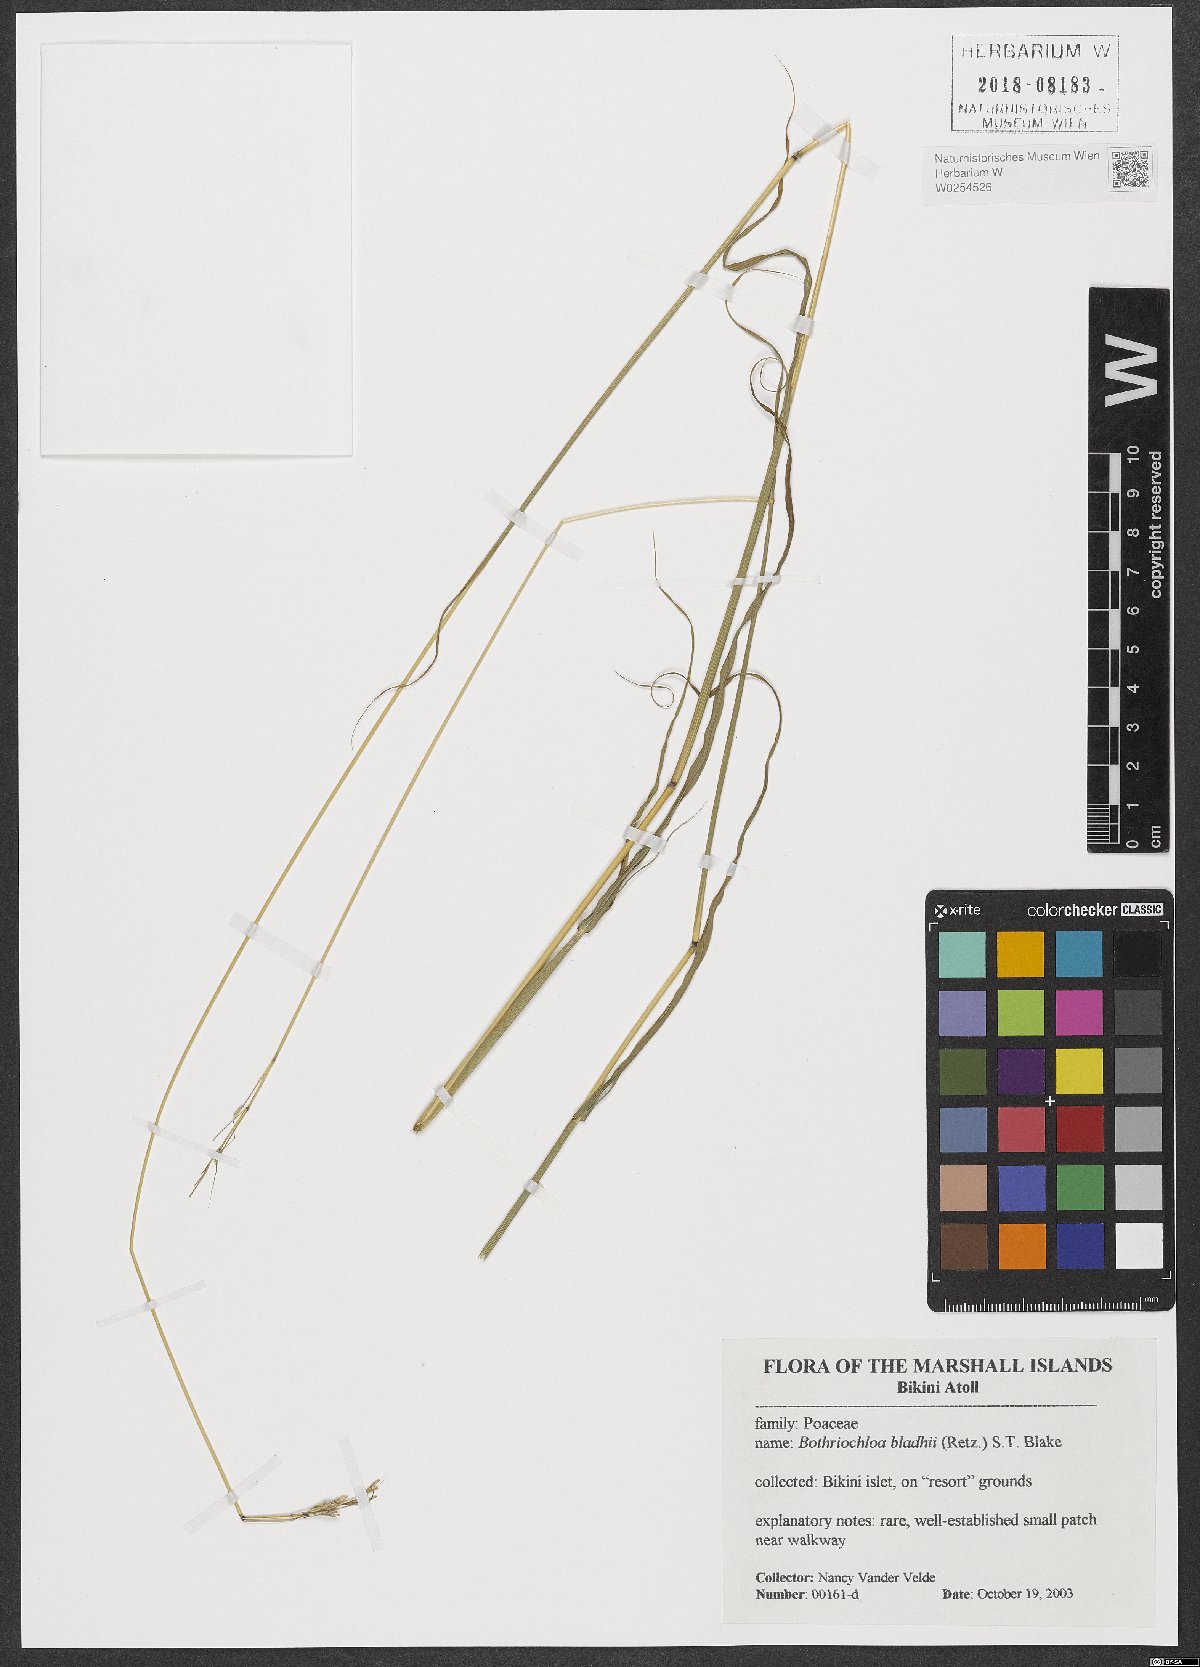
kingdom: Plantae
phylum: Tracheophyta
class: Liliopsida
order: Poales
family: Poaceae
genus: Bothriochloa
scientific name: Bothriochloa bladhii
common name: Caucasian bluestem
